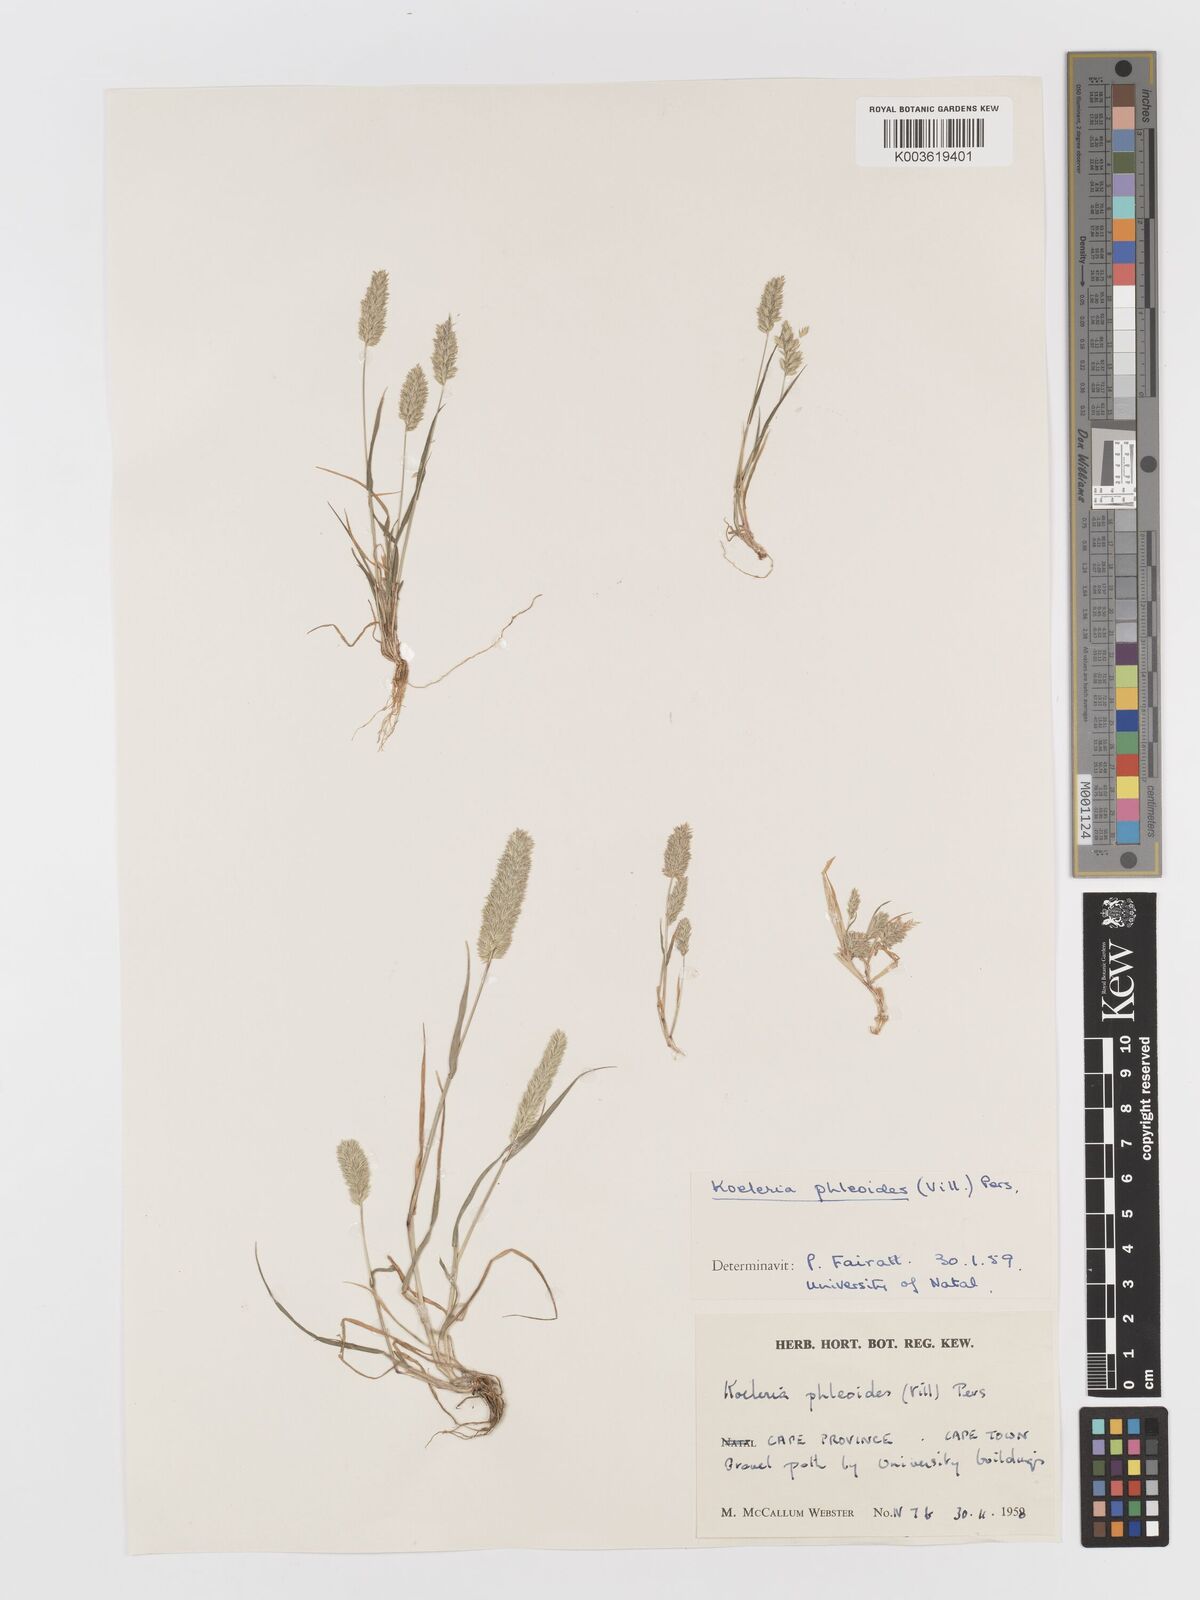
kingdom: Plantae
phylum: Tracheophyta
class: Liliopsida
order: Poales
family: Poaceae
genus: Rostraria
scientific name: Rostraria cristata
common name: Mediterranean hair-grass
